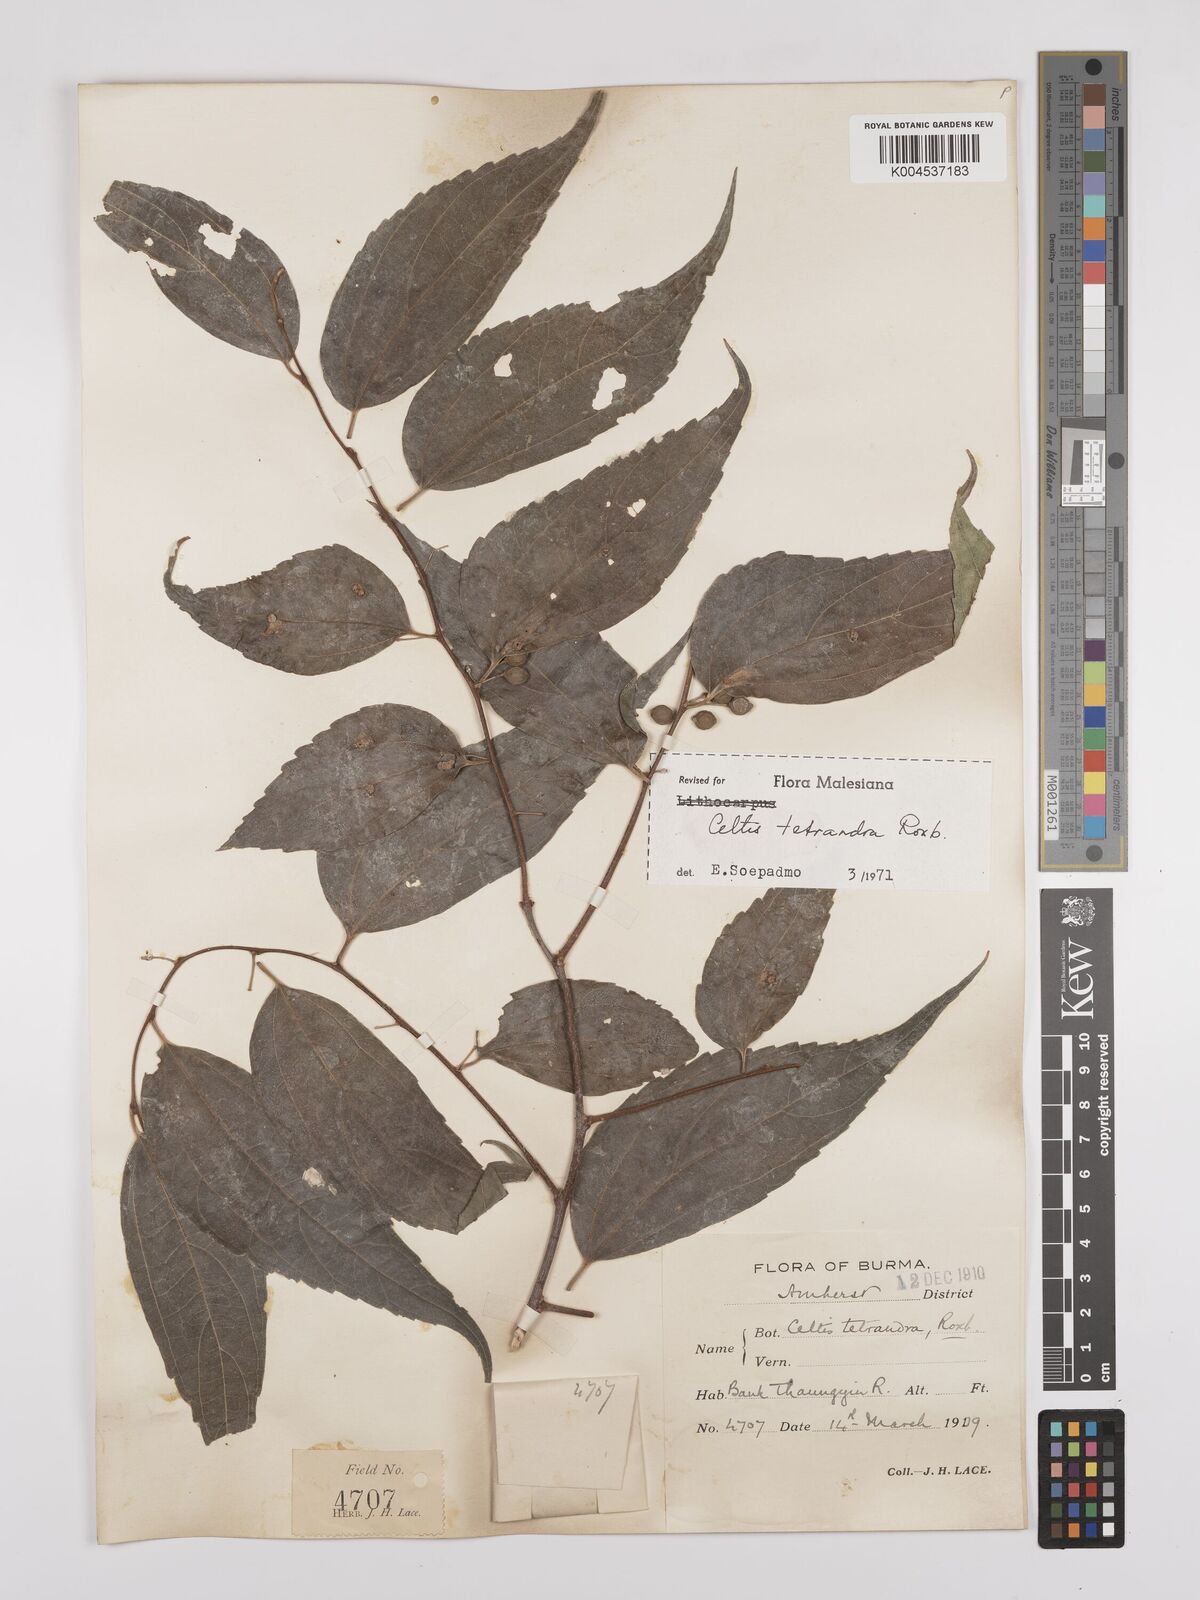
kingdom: Plantae
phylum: Tracheophyta
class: Magnoliopsida
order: Rosales
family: Cannabaceae
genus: Celtis
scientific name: Celtis tetrandra
